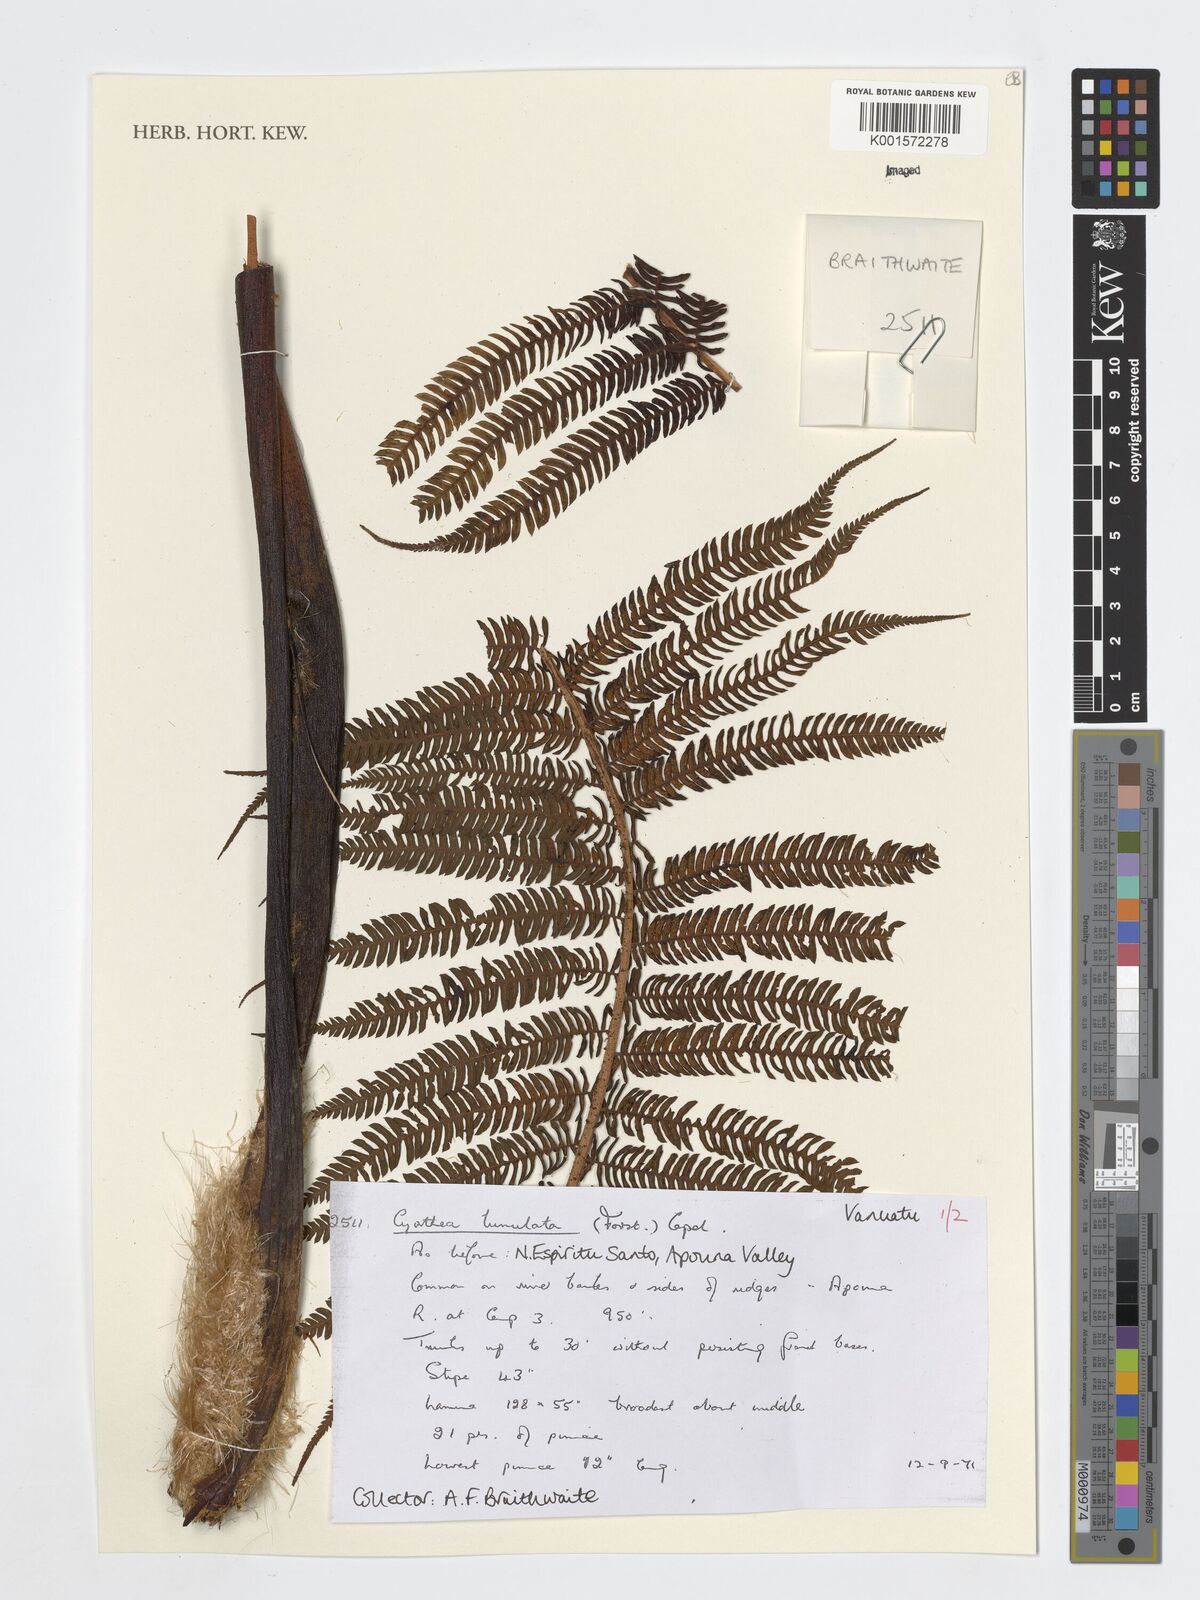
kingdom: Plantae
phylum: Tracheophyta
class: Polypodiopsida
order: Cyatheales
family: Cyatheaceae
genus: Sphaeropteris
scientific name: Sphaeropteris lunulata
